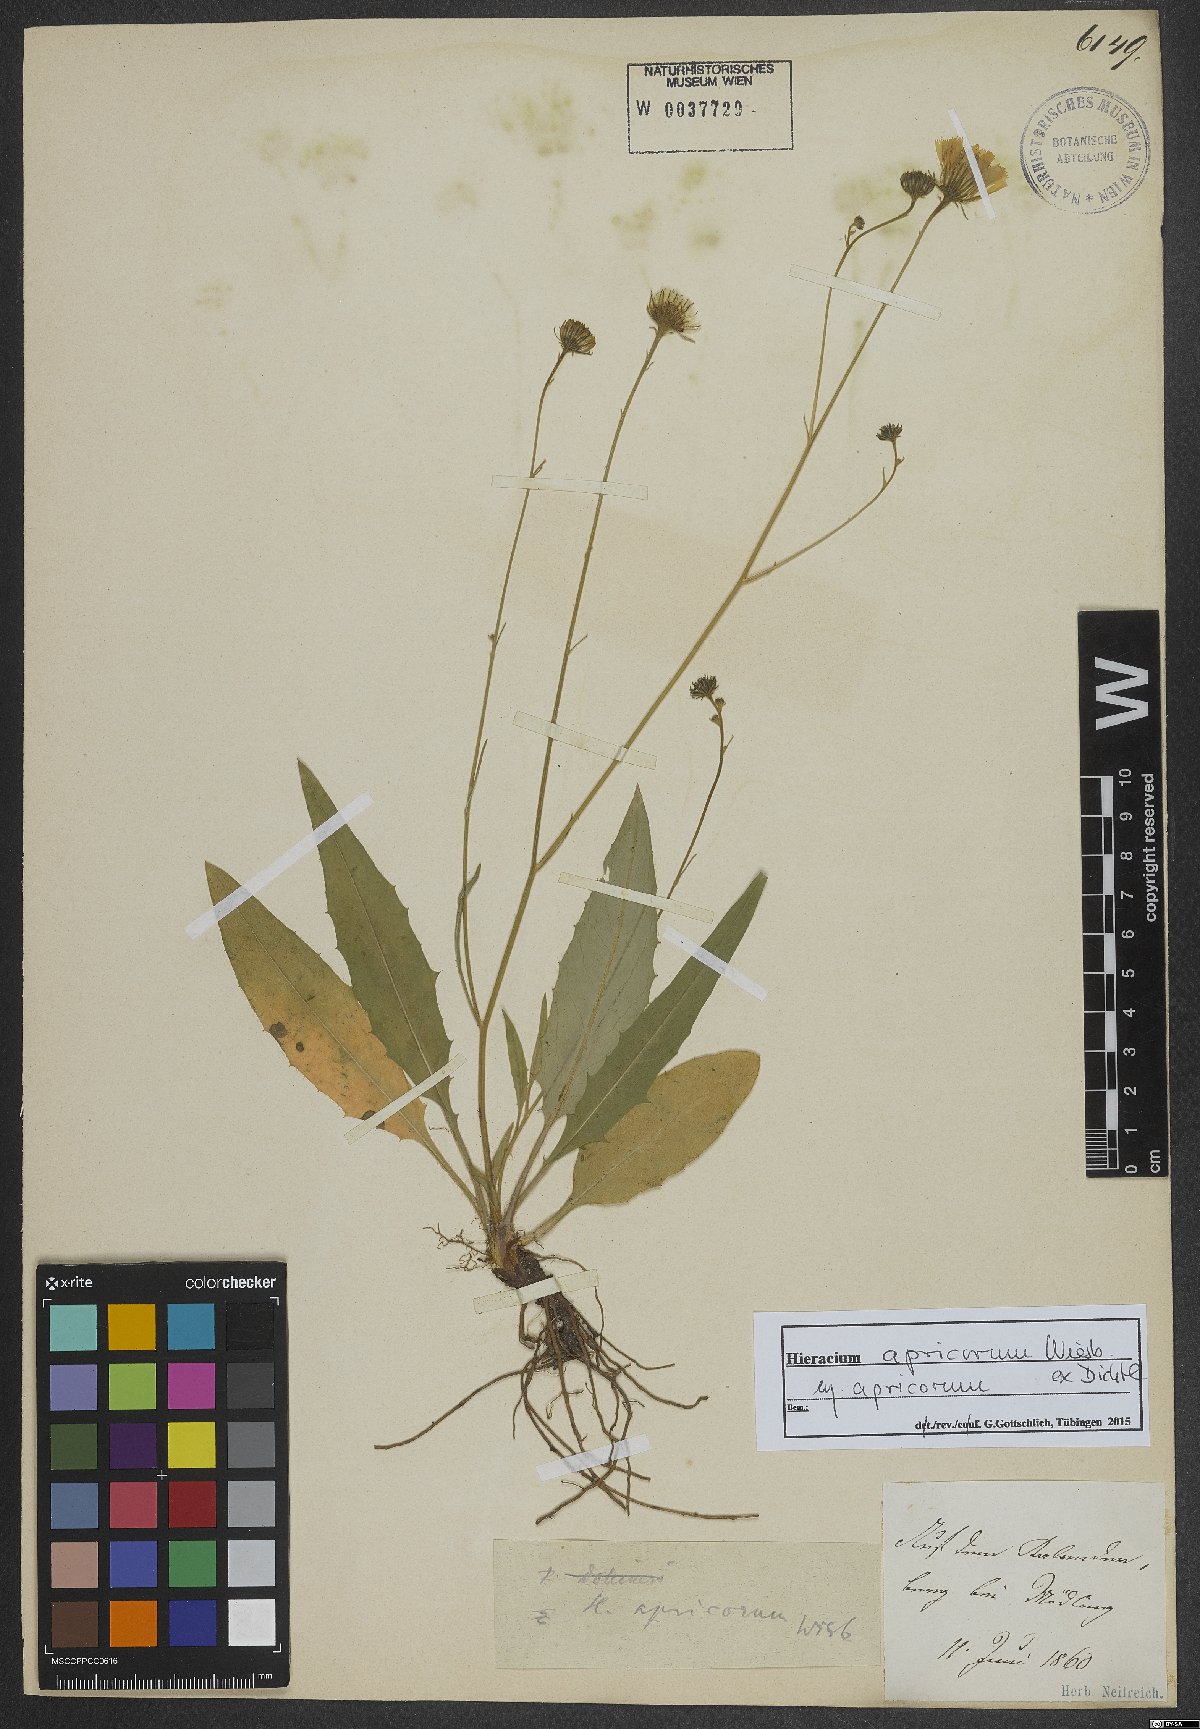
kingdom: Plantae
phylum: Tracheophyta
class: Magnoliopsida
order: Asterales
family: Asteraceae
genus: Hieracium
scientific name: Hieracium apricorum
